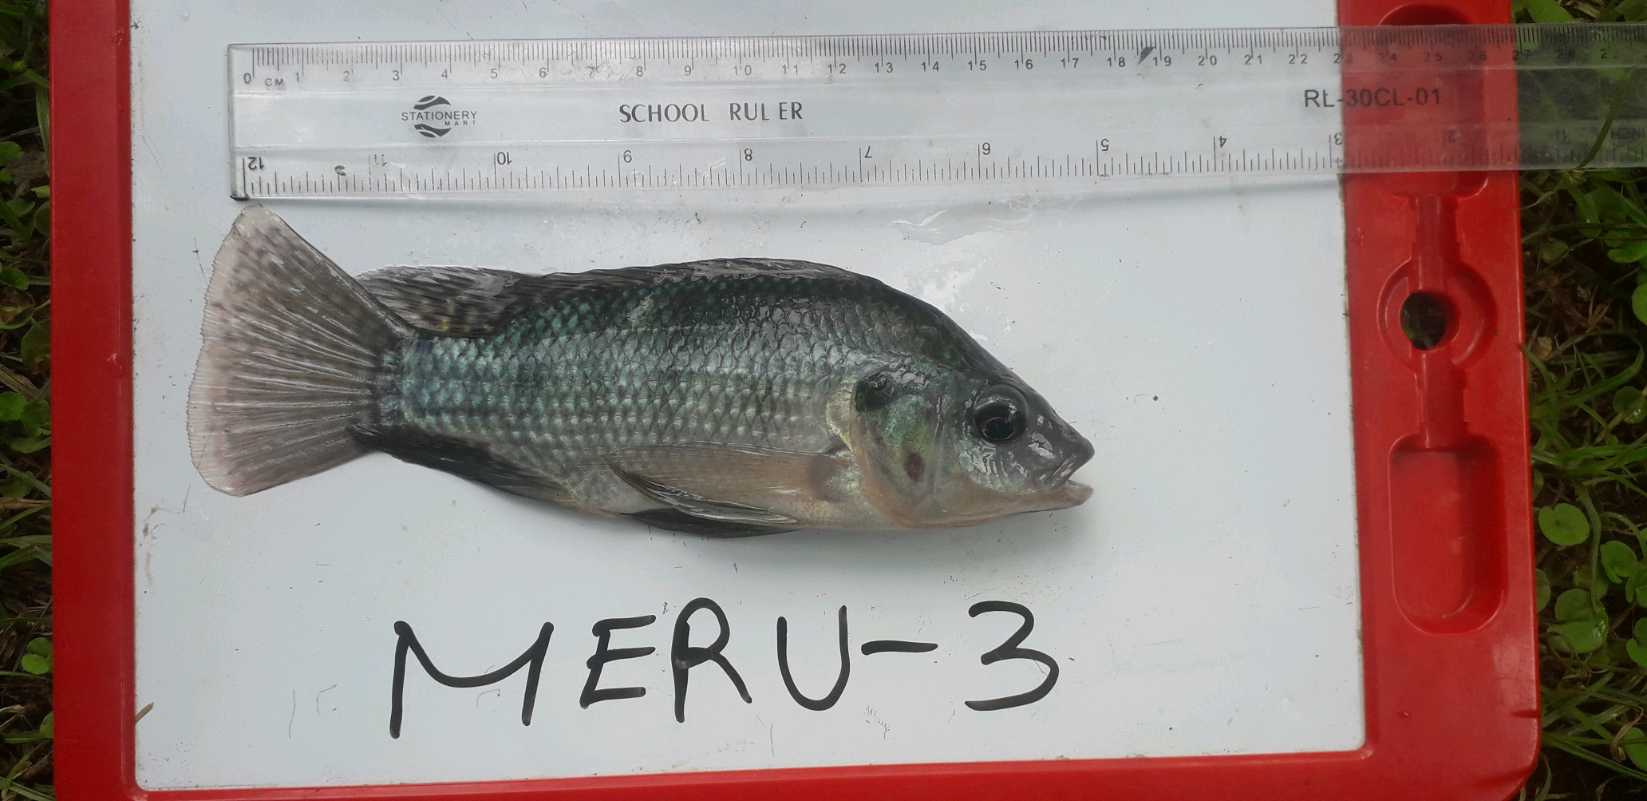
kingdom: Animalia
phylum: Chordata
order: Perciformes
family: Cichlidae
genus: Oreochromis
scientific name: Oreochromis
